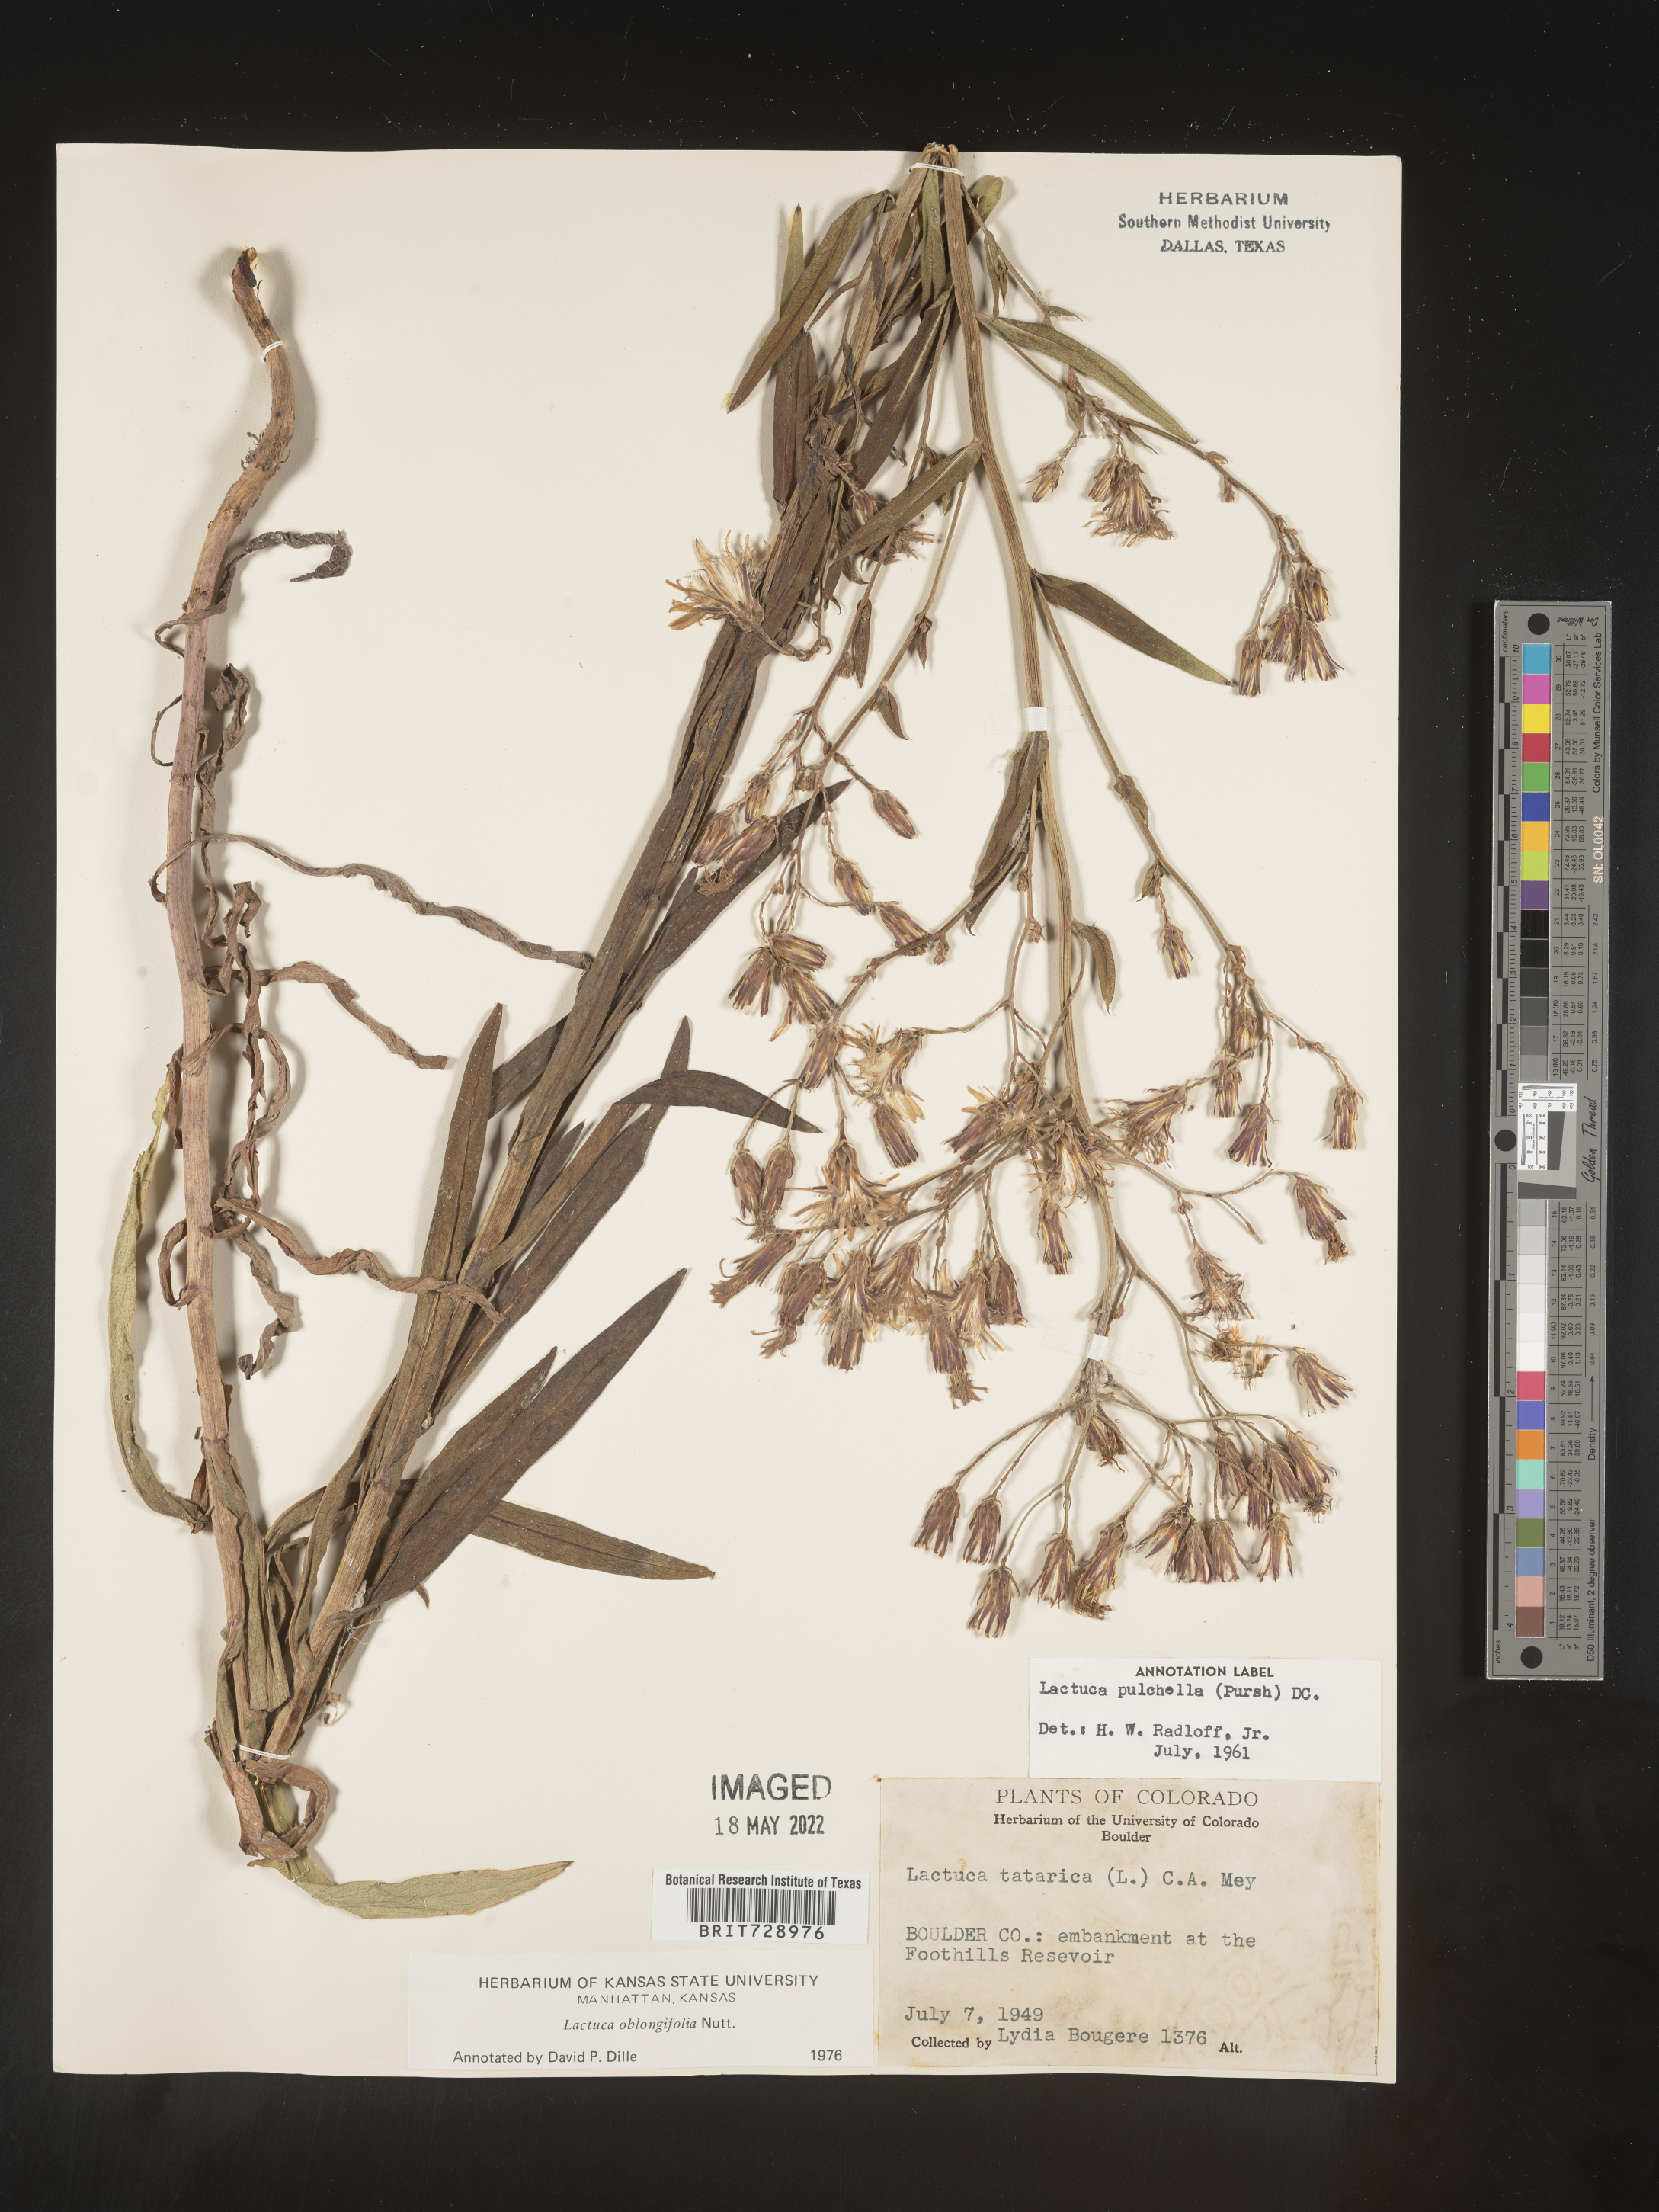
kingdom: Plantae
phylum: Tracheophyta
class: Magnoliopsida
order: Asterales
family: Asteraceae
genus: Lactuca
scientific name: Lactuca pulchella
